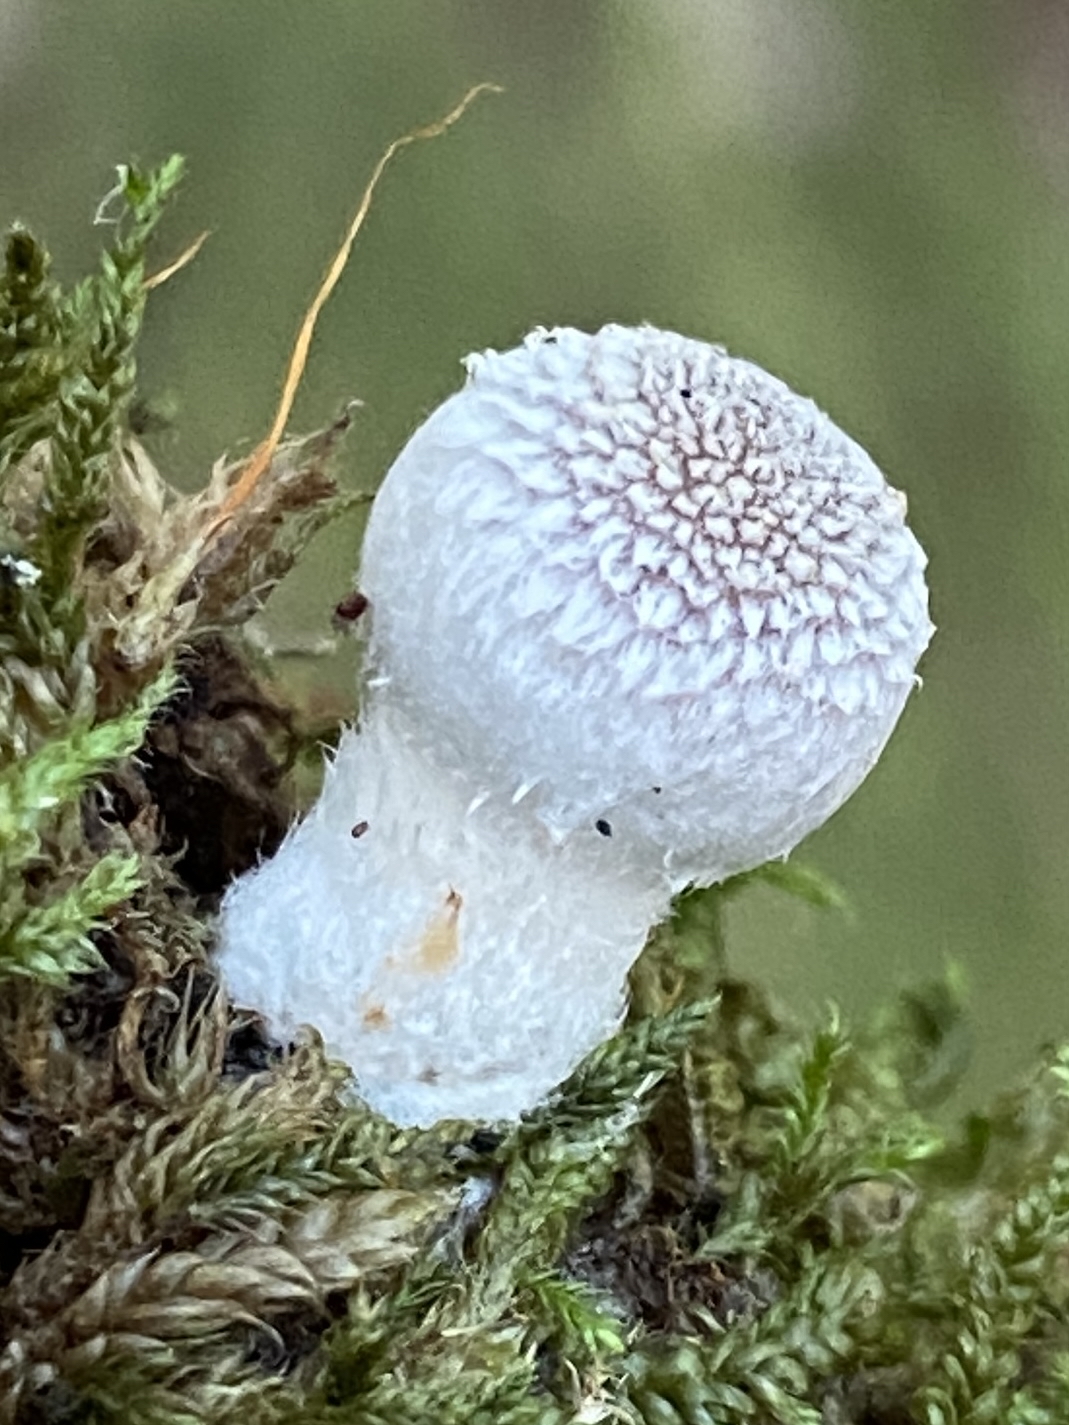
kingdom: Fungi
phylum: Basidiomycota
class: Agaricomycetes
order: Agaricales
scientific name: Agaricales
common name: champignonordenen
